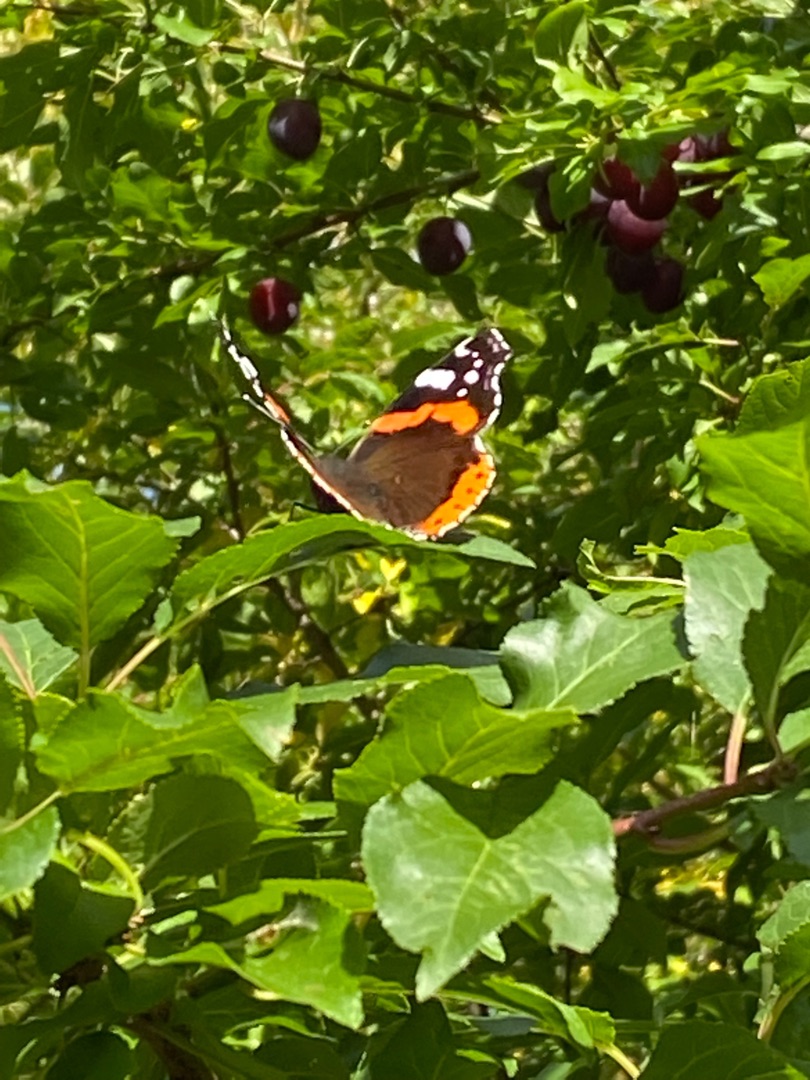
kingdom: Animalia
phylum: Arthropoda
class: Insecta
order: Lepidoptera
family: Nymphalidae
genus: Vanessa
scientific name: Vanessa atalanta
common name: Admiral
